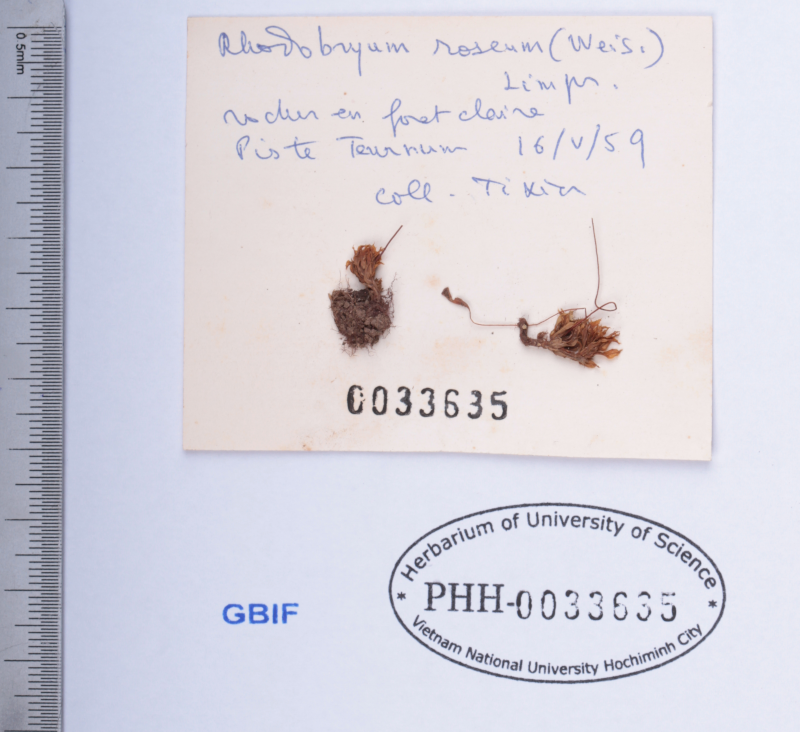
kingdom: Plantae
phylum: Bryophyta
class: Bryopsida
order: Bryales
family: Bryaceae
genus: Rhodobryum
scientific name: Rhodobryum roseum
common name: Rose-moss
